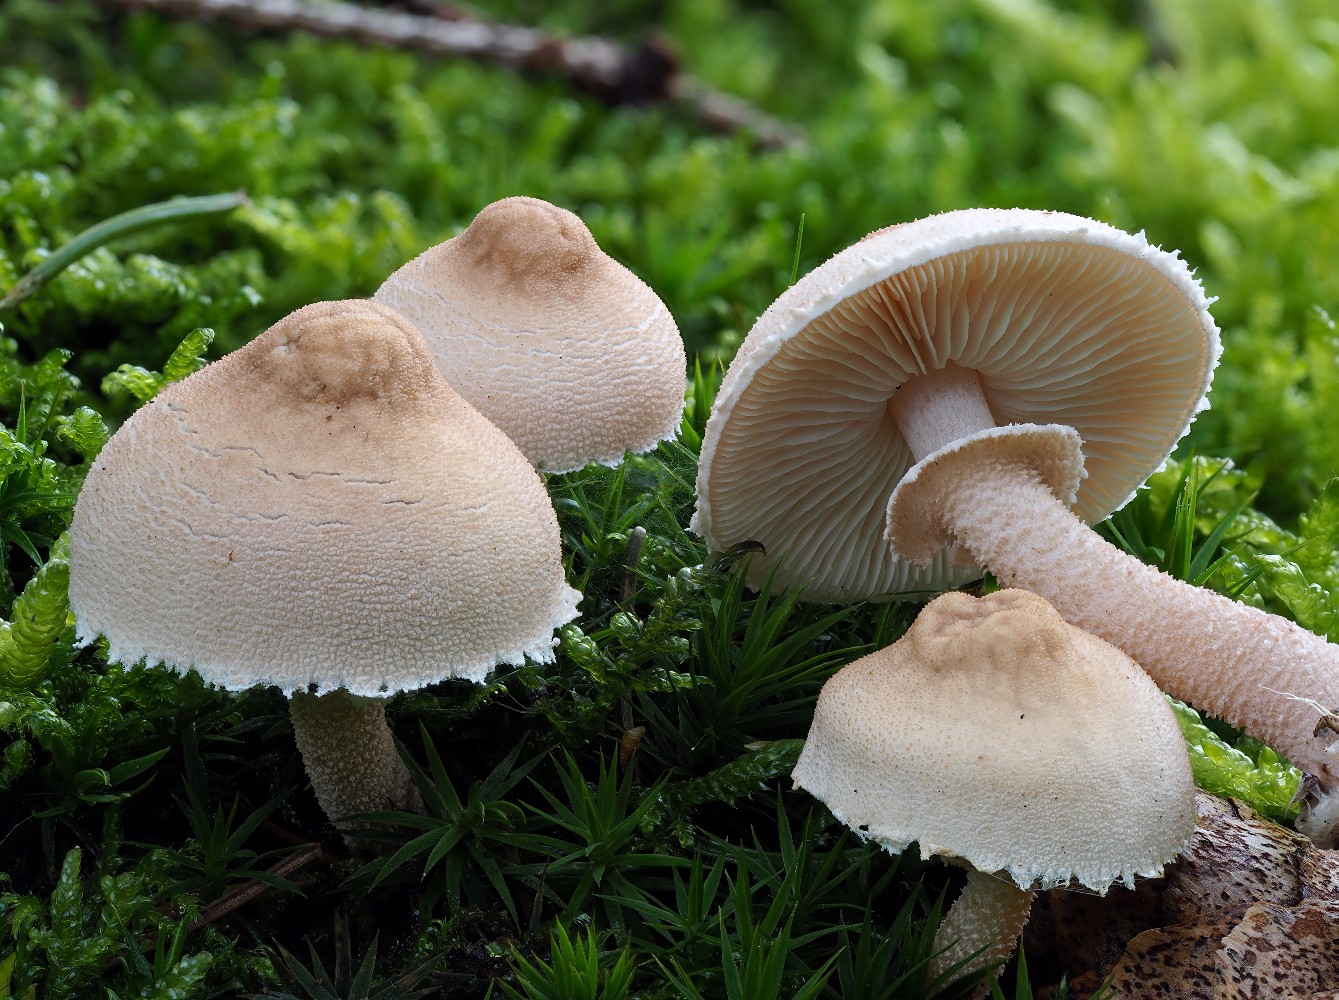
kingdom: Fungi
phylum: Basidiomycota
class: Agaricomycetes
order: Agaricales
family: Tricholomataceae
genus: Cystoderma
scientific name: Cystoderma carcharias
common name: rødgrå grynhat
